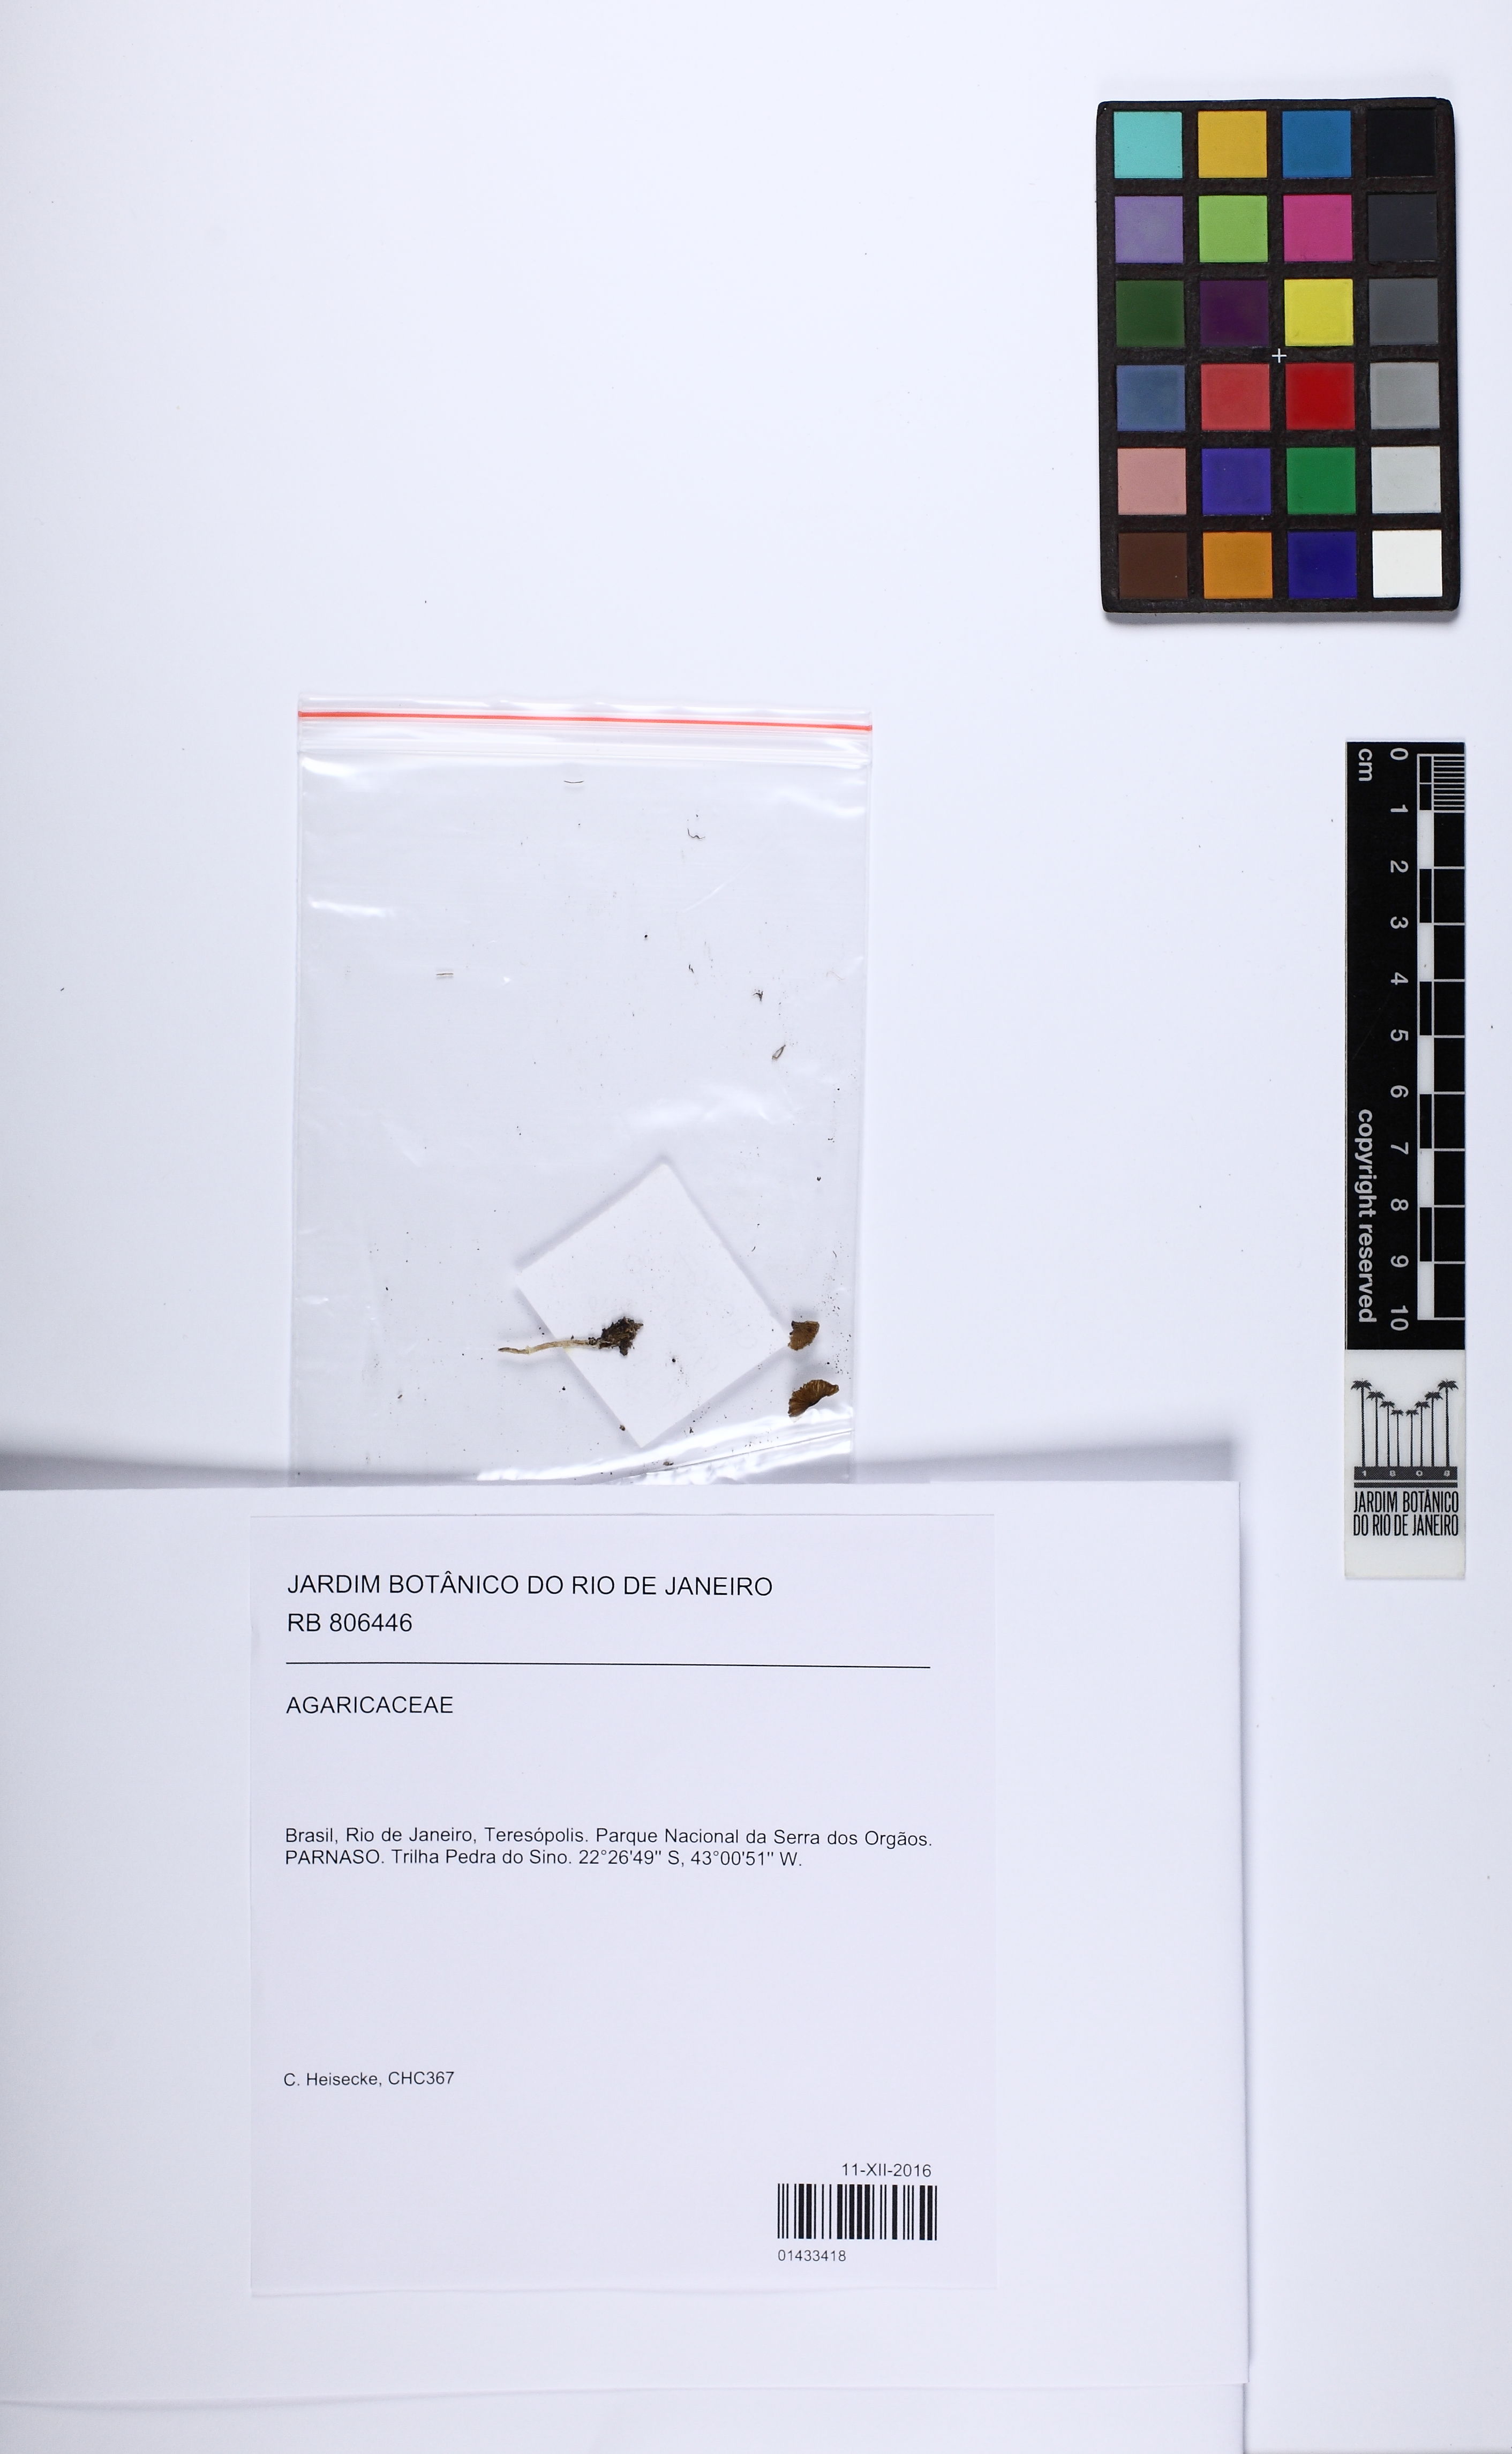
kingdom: Fungi
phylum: Basidiomycota
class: Agaricomycetes
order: Agaricales
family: Agaricaceae
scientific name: Agaricaceae
